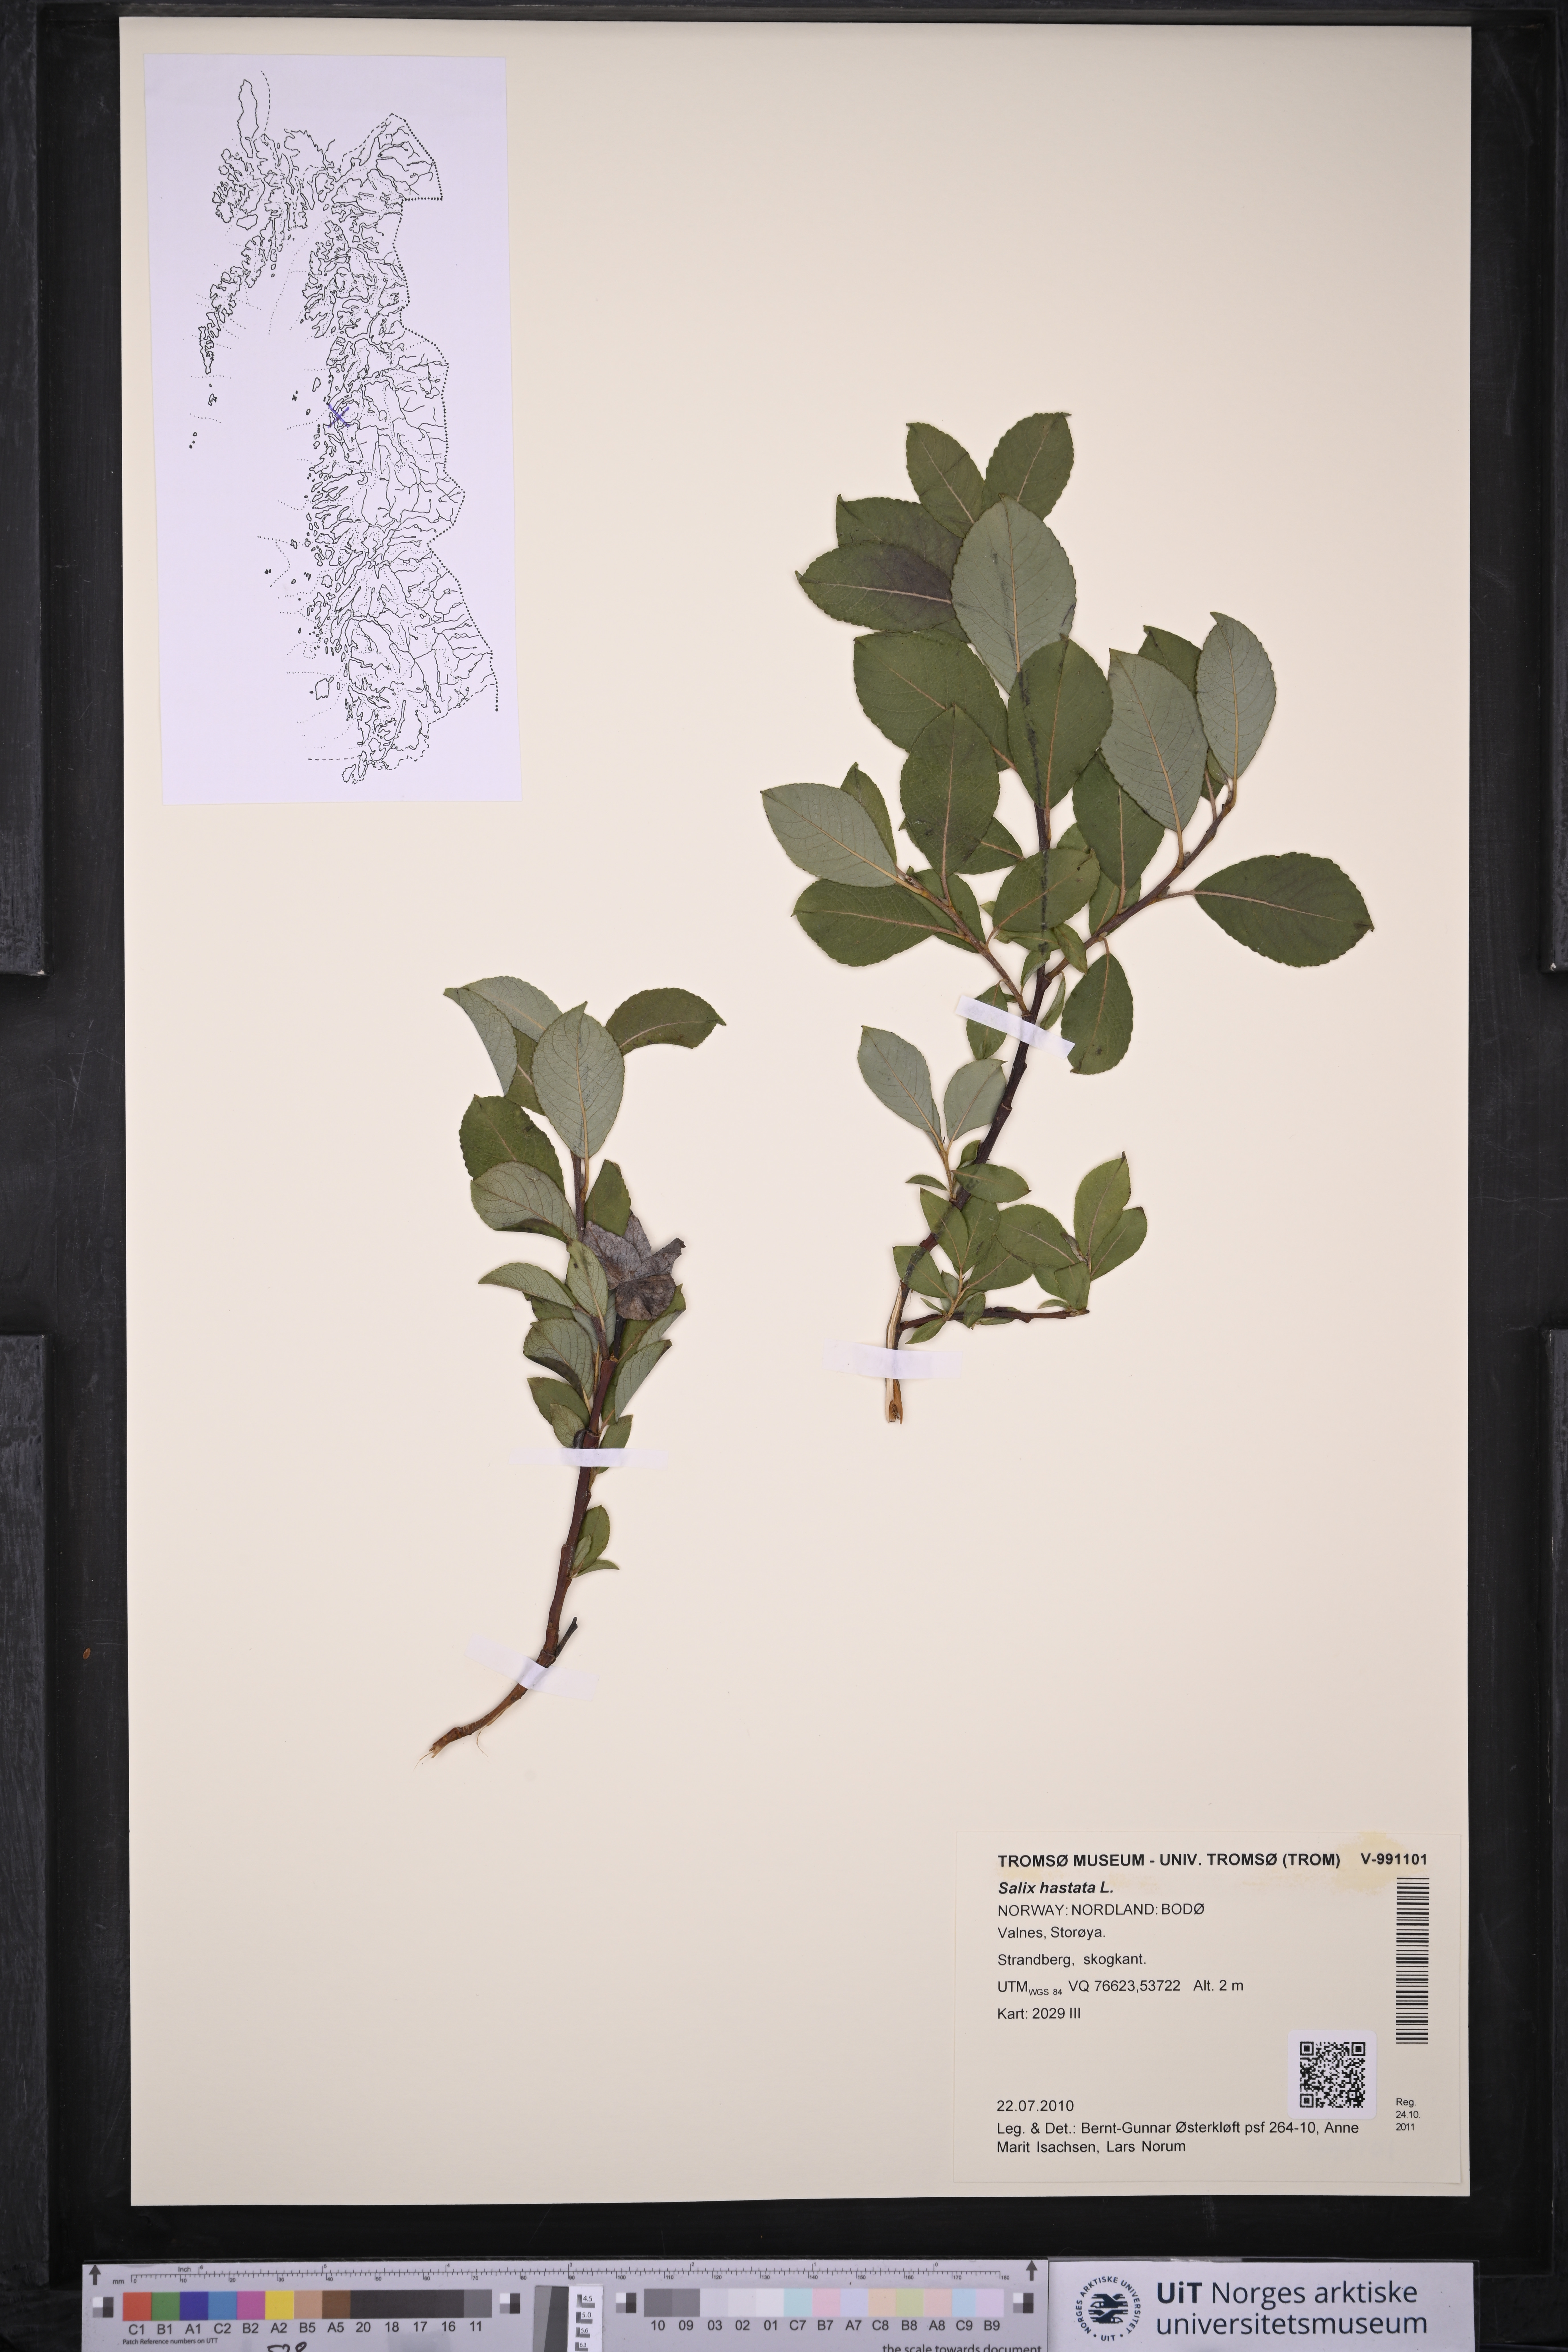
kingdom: Plantae
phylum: Tracheophyta
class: Magnoliopsida
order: Malpighiales
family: Salicaceae
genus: Salix
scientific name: Salix hastata
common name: Halberd willow
